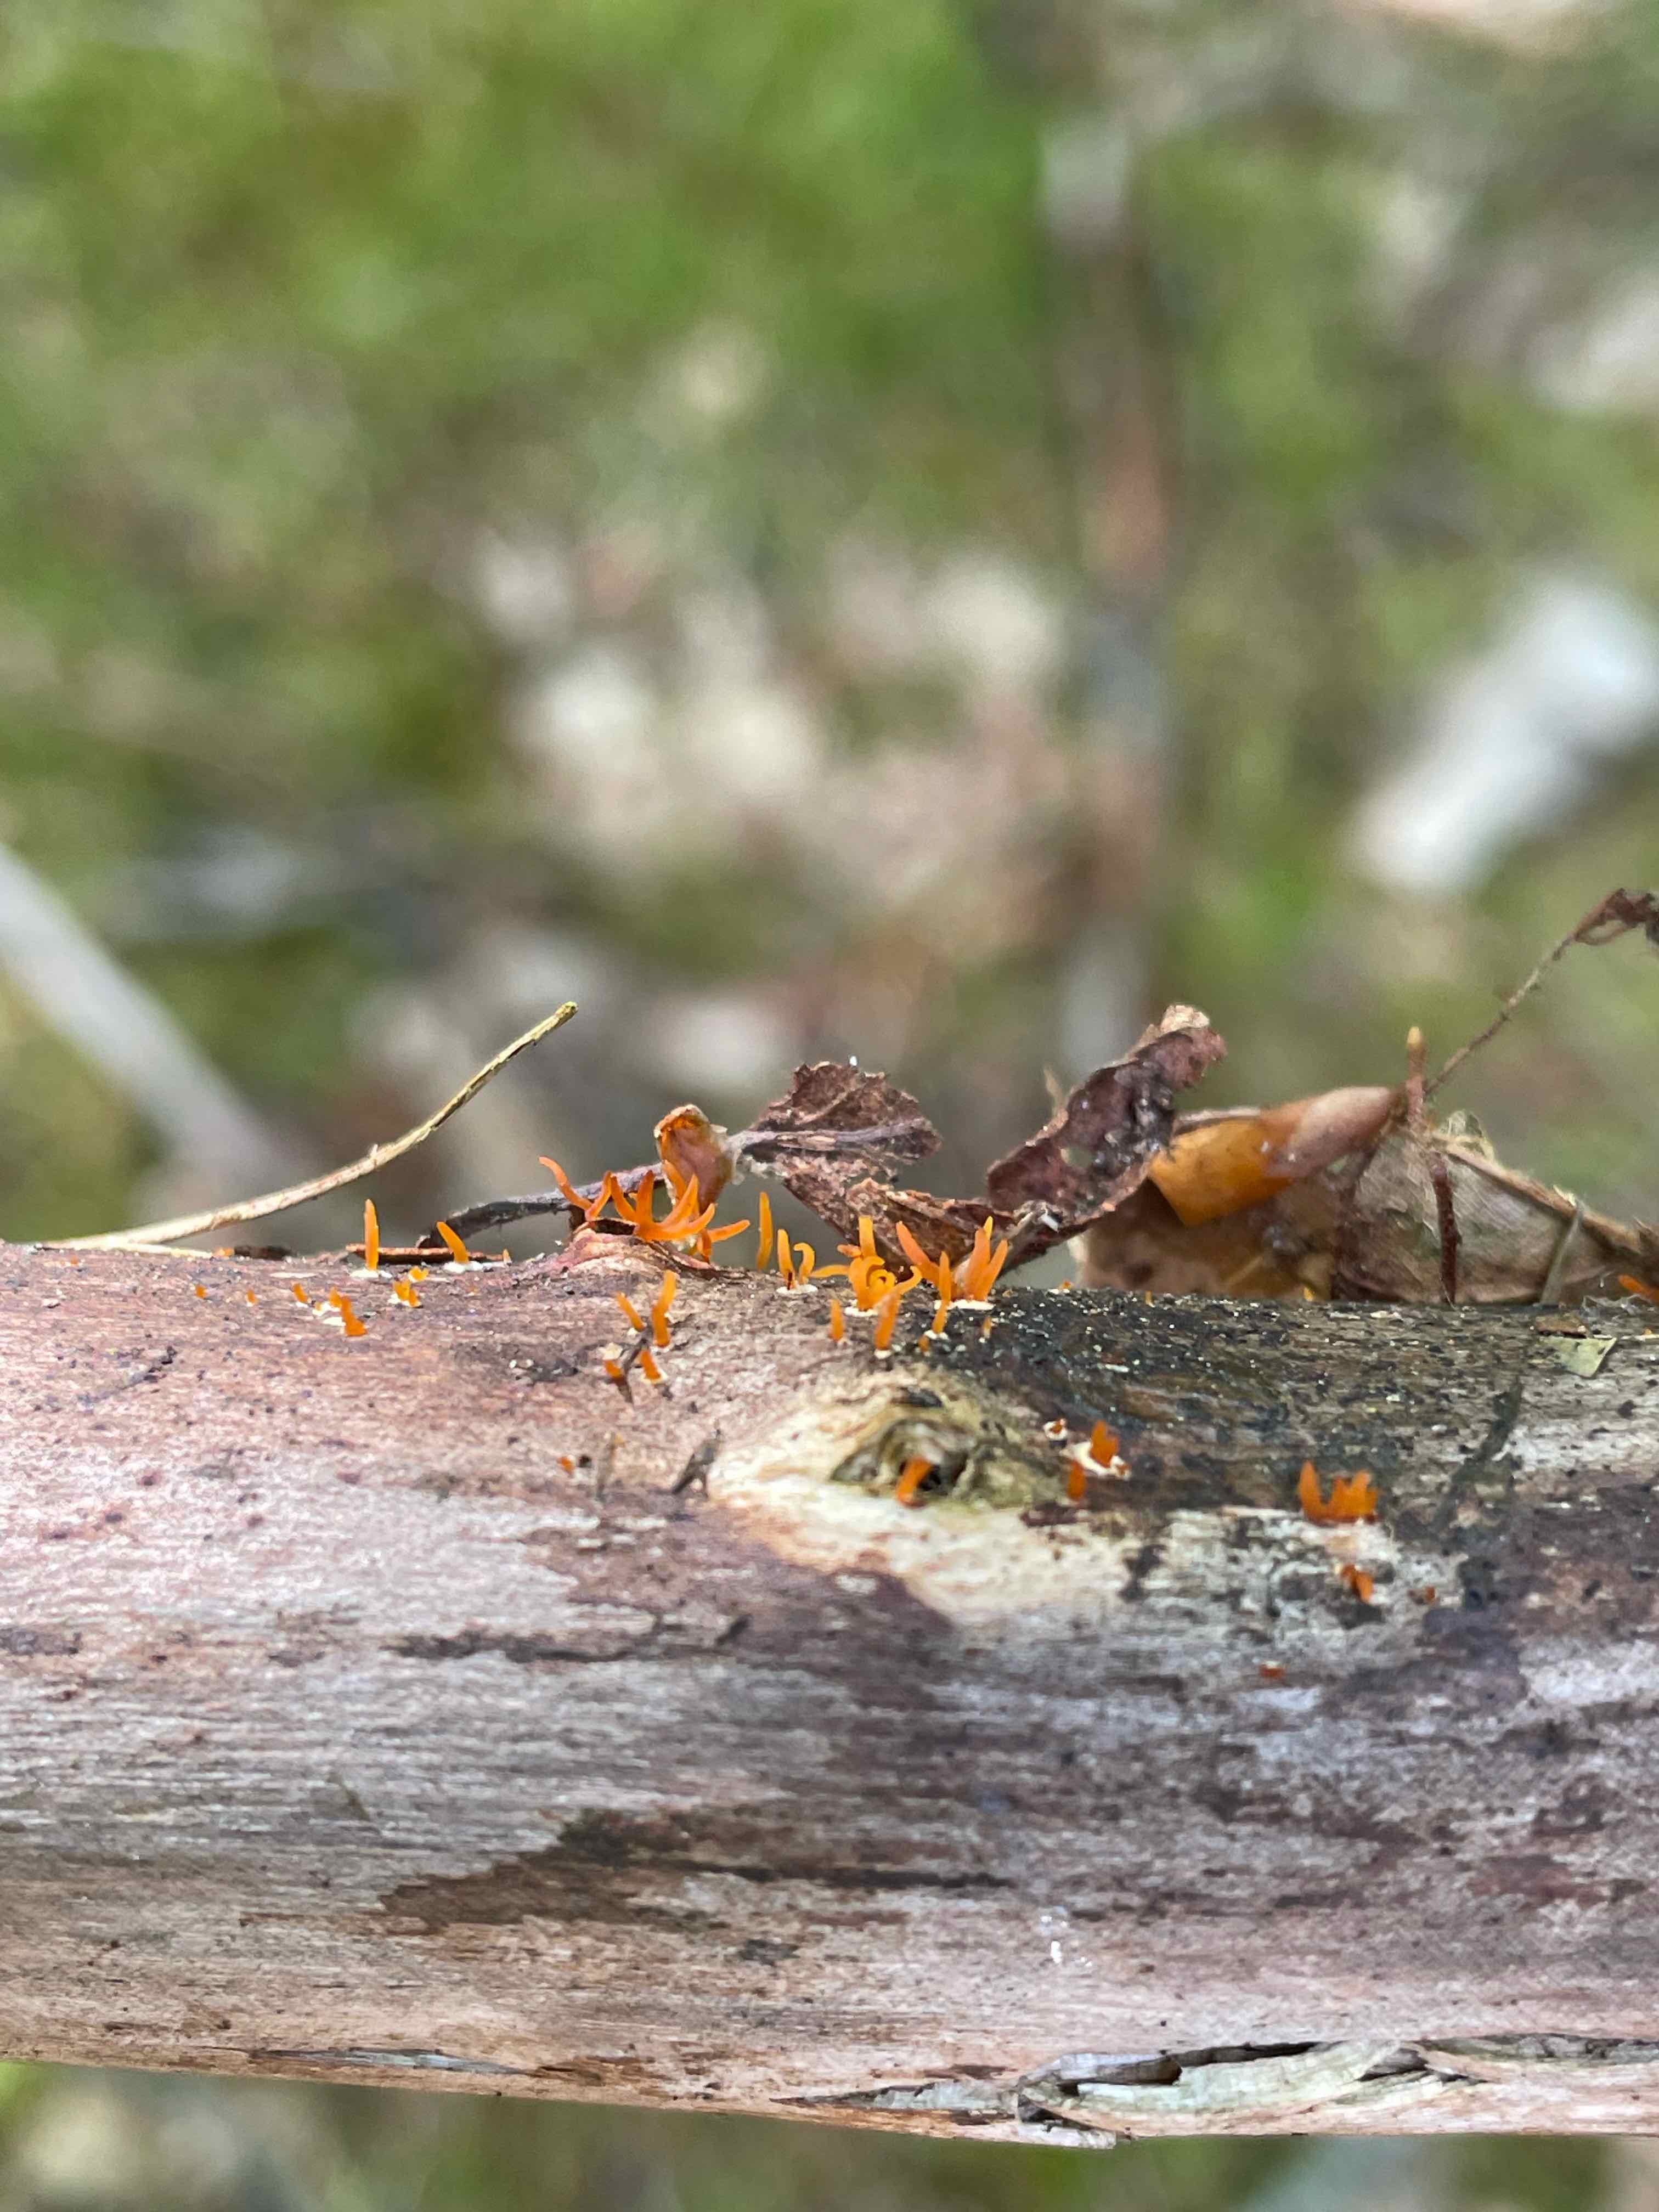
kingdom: Fungi
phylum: Basidiomycota
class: Dacrymycetes
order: Dacrymycetales
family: Dacrymycetaceae
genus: Calocera
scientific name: Calocera cornea
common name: liden guldgaffel
